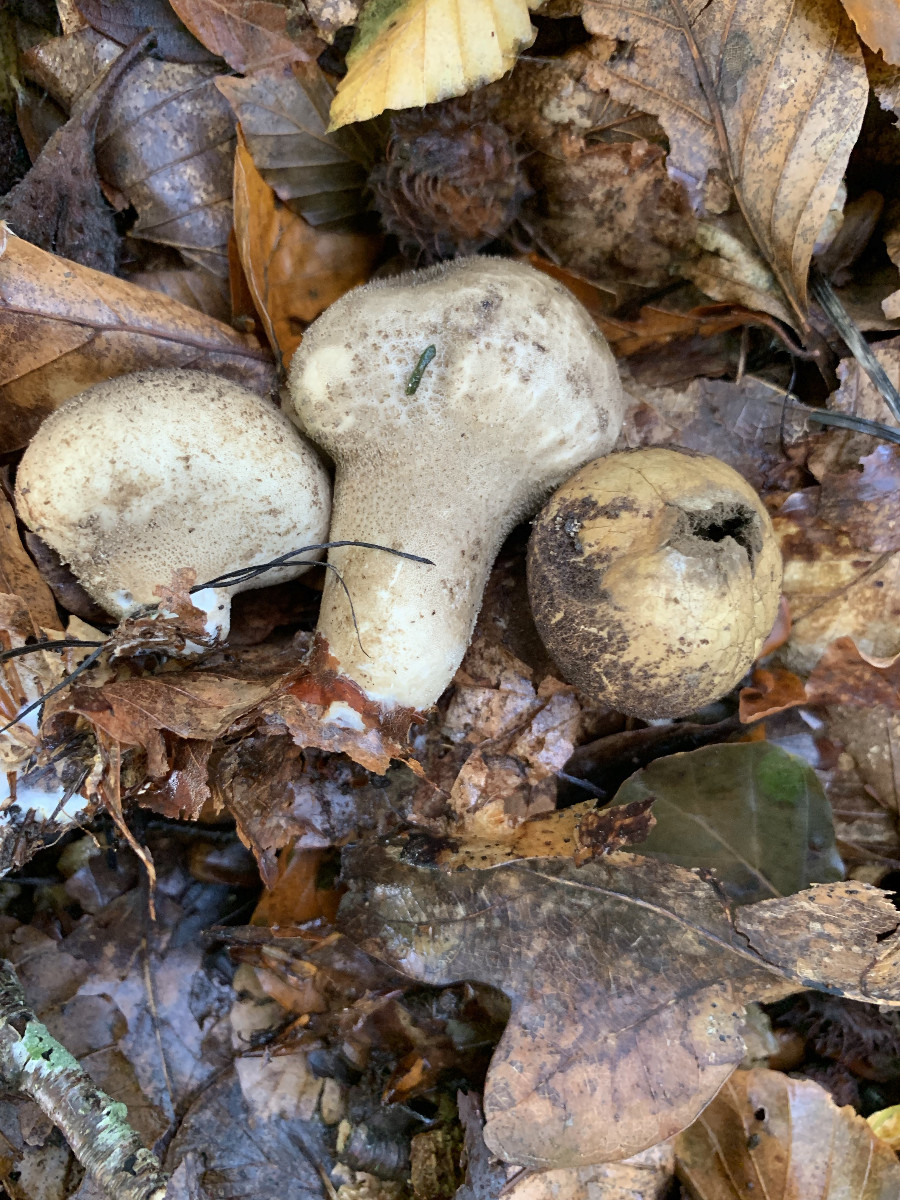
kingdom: Fungi
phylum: Basidiomycota
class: Agaricomycetes
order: Agaricales
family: Lycoperdaceae
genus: Lycoperdon
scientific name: Lycoperdon molle
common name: skov-støvbold
